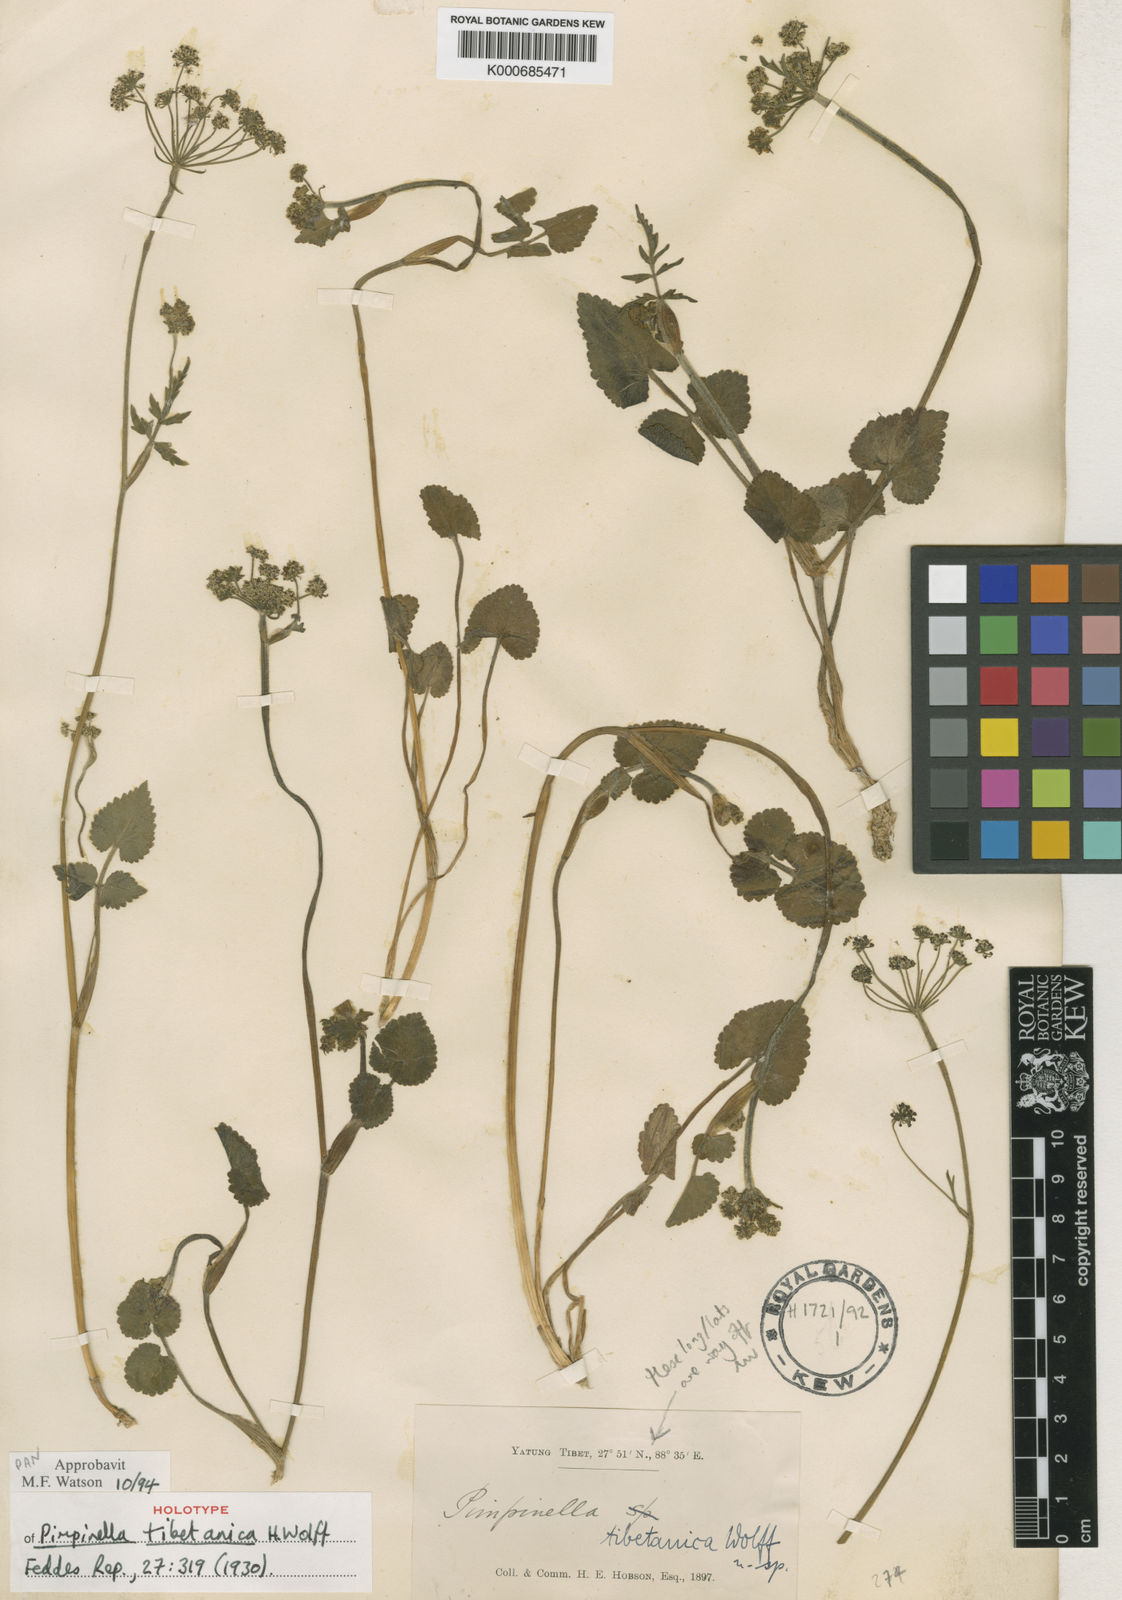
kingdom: Plantae
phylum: Tracheophyta
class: Magnoliopsida
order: Apiales
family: Apiaceae
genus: Pimpinella
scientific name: Pimpinella tibetanica
